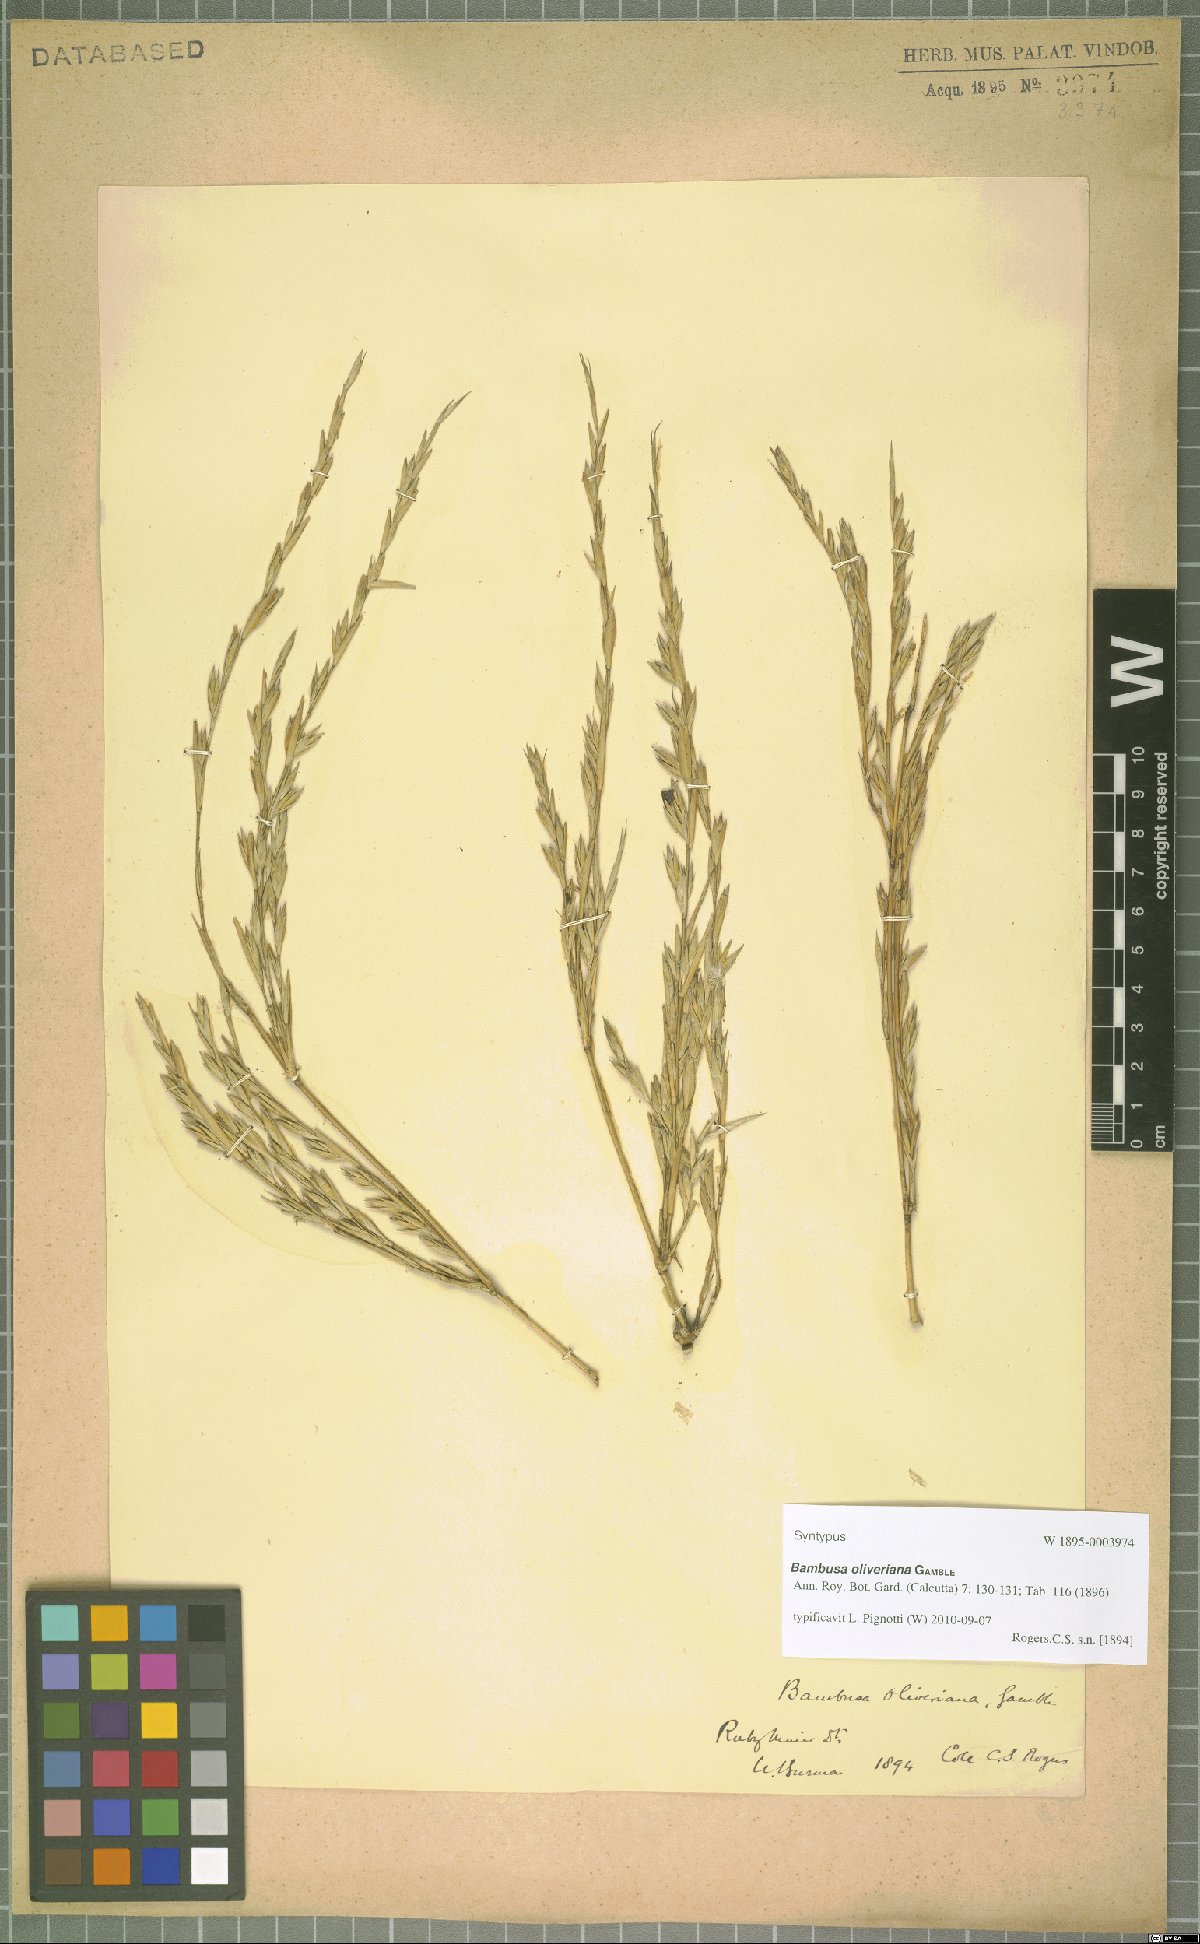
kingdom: Plantae
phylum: Tracheophyta
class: Liliopsida
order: Poales
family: Poaceae
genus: Bambusa
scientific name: Bambusa oliveriana
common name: Bush bamboo
